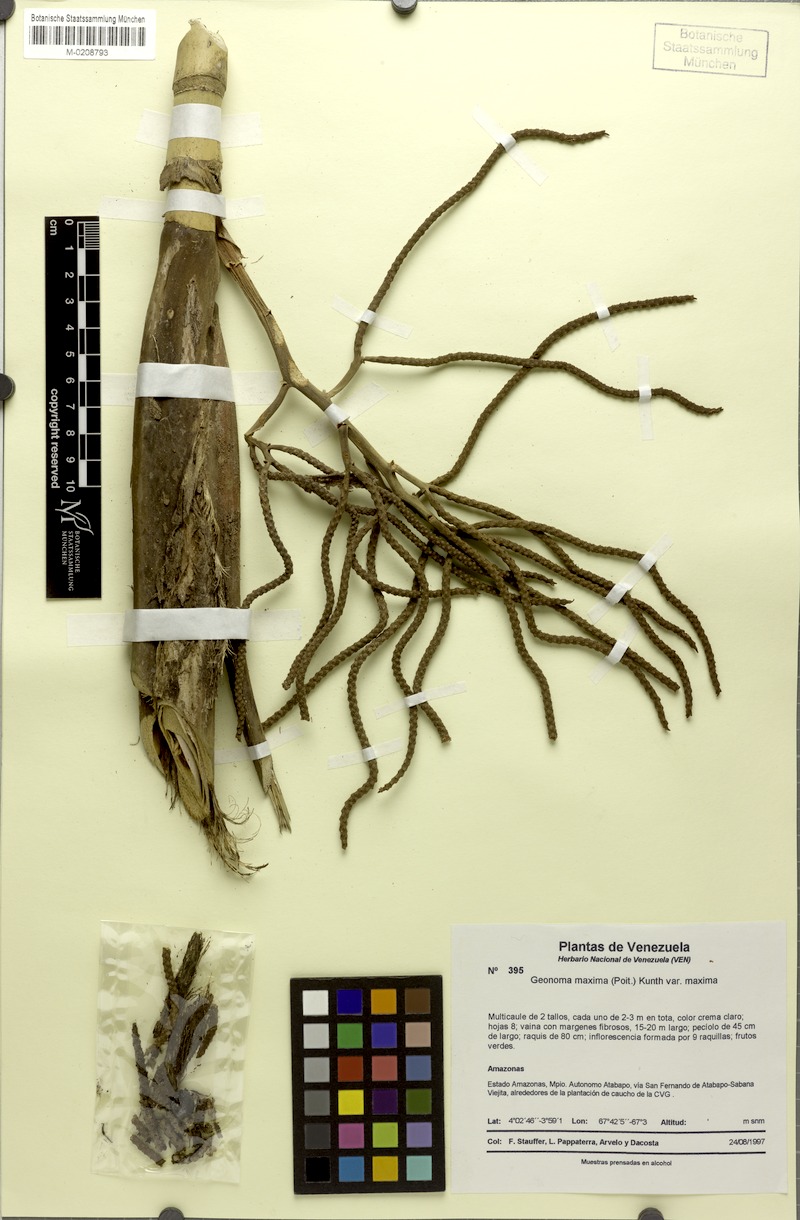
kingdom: Plantae
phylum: Tracheophyta
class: Liliopsida
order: Arecales
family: Arecaceae
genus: Geonoma
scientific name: Geonoma maxima
